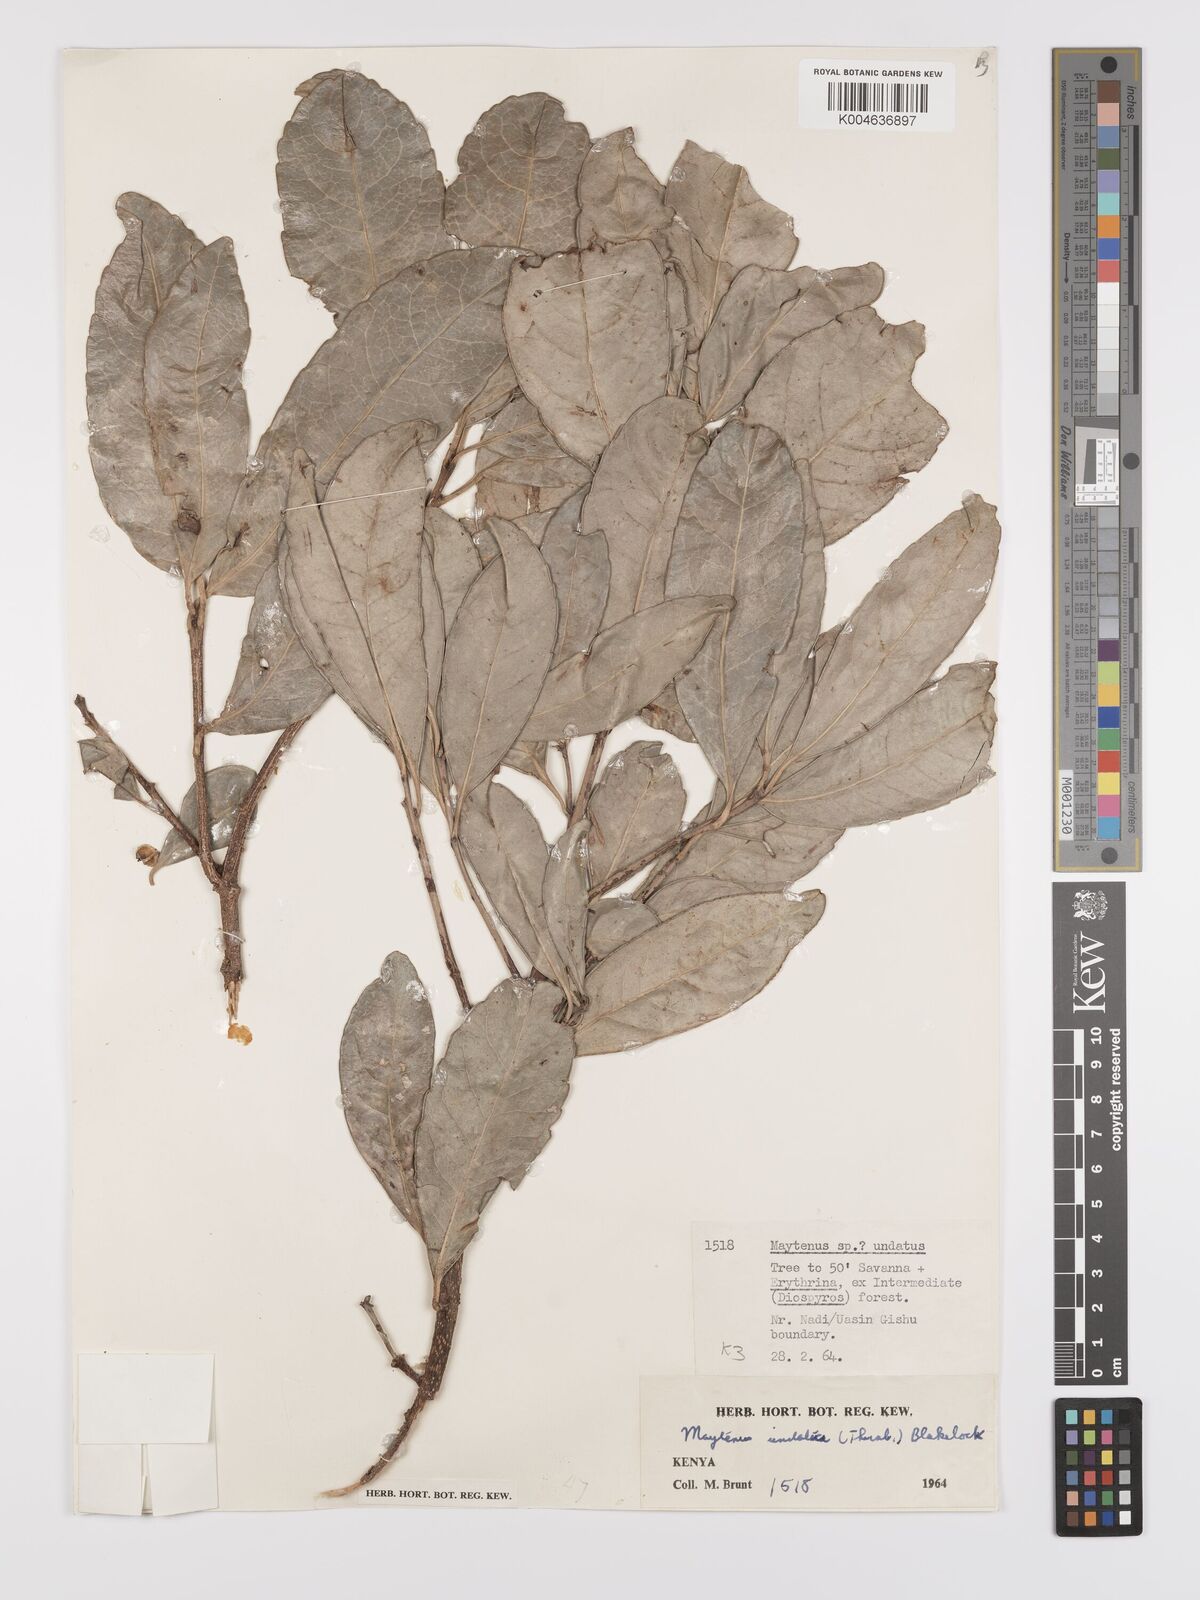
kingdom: Plantae
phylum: Tracheophyta
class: Magnoliopsida
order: Celastrales
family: Celastraceae
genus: Gymnosporia
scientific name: Gymnosporia undata
